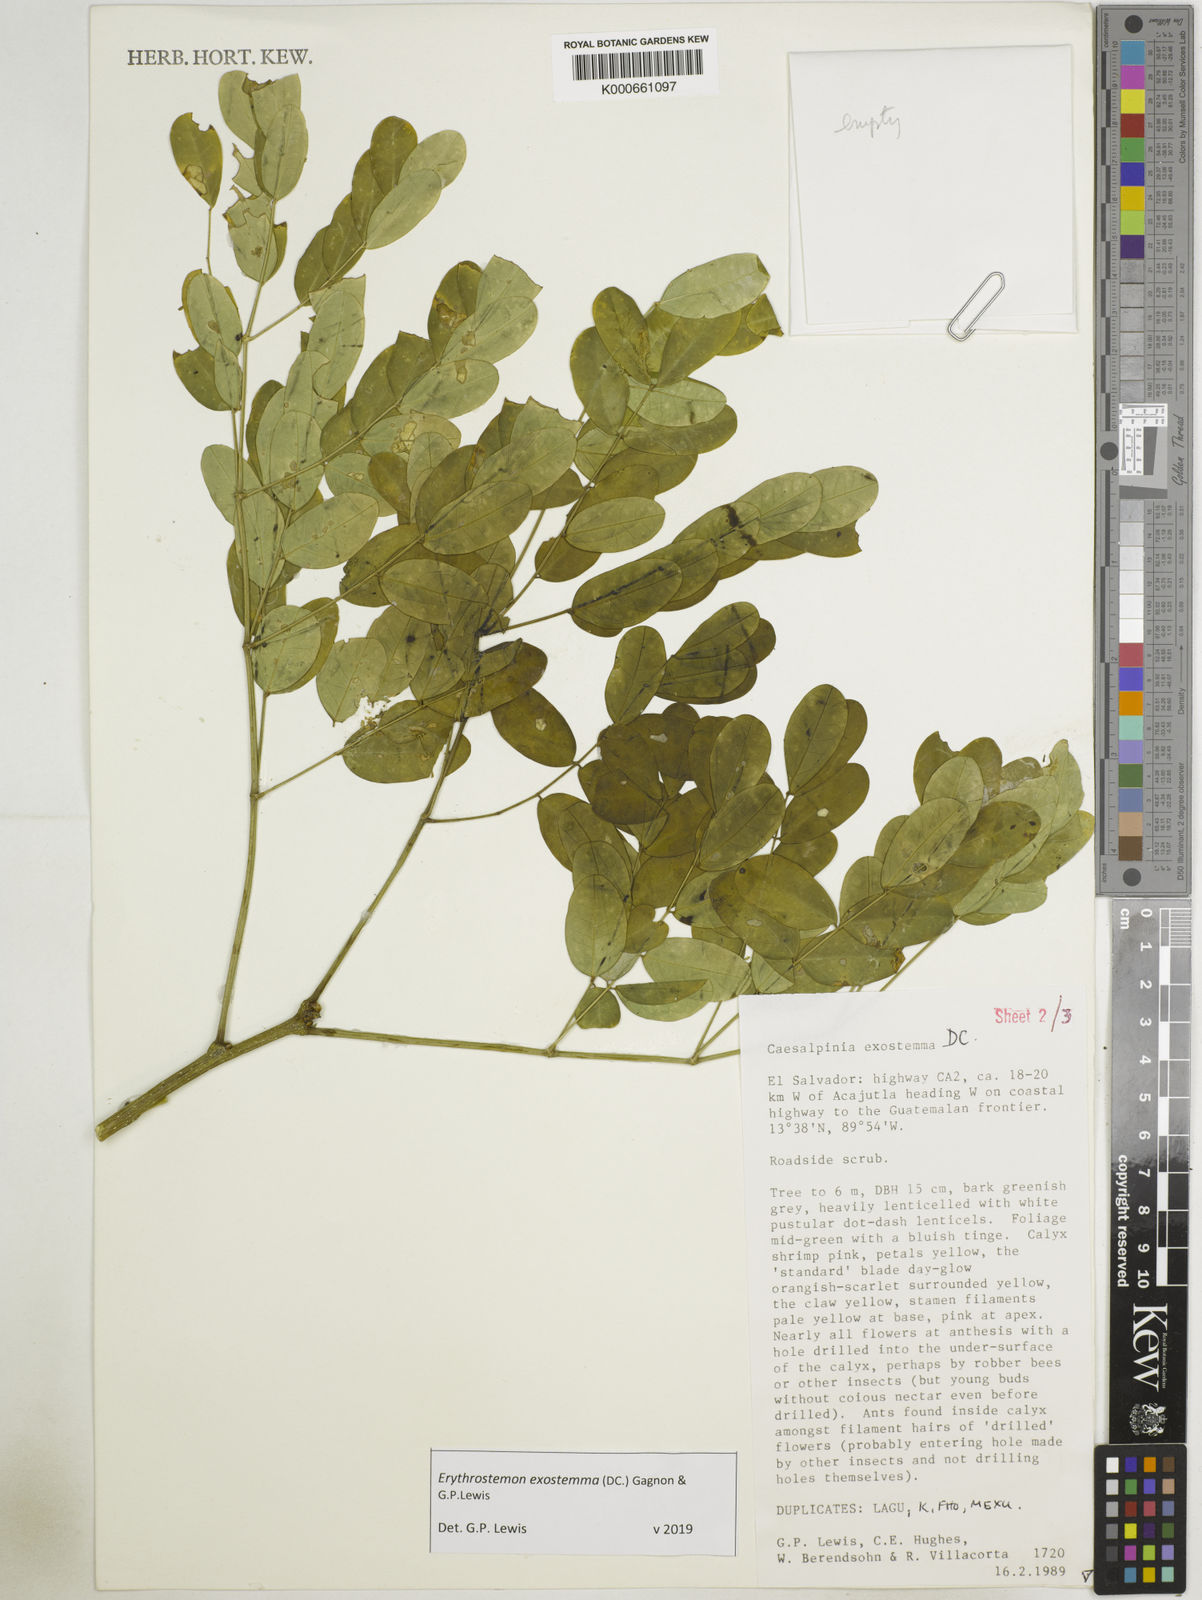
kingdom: Plantae
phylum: Tracheophyta
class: Magnoliopsida
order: Fabales
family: Fabaceae
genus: Erythrostemon
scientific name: Erythrostemon exostemma
